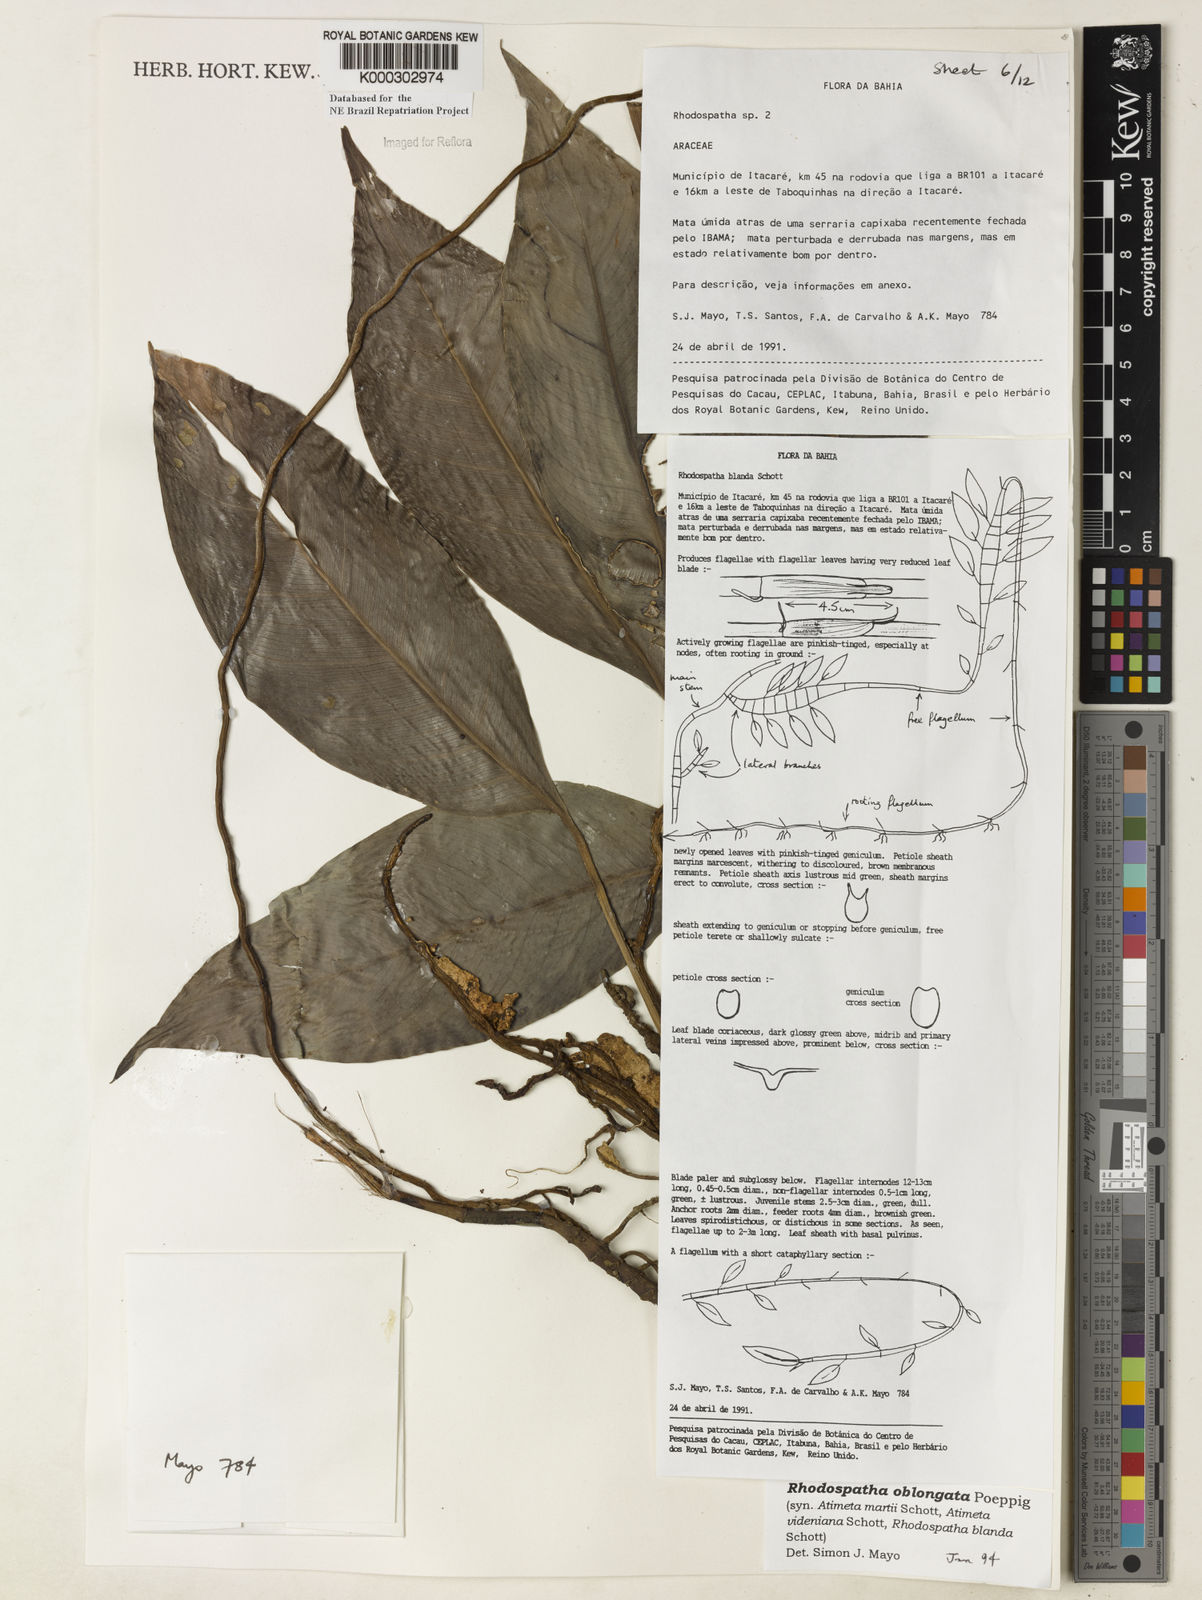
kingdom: Plantae
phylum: Tracheophyta
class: Liliopsida
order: Alismatales
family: Araceae
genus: Rhodospatha
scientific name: Rhodospatha oblongata
